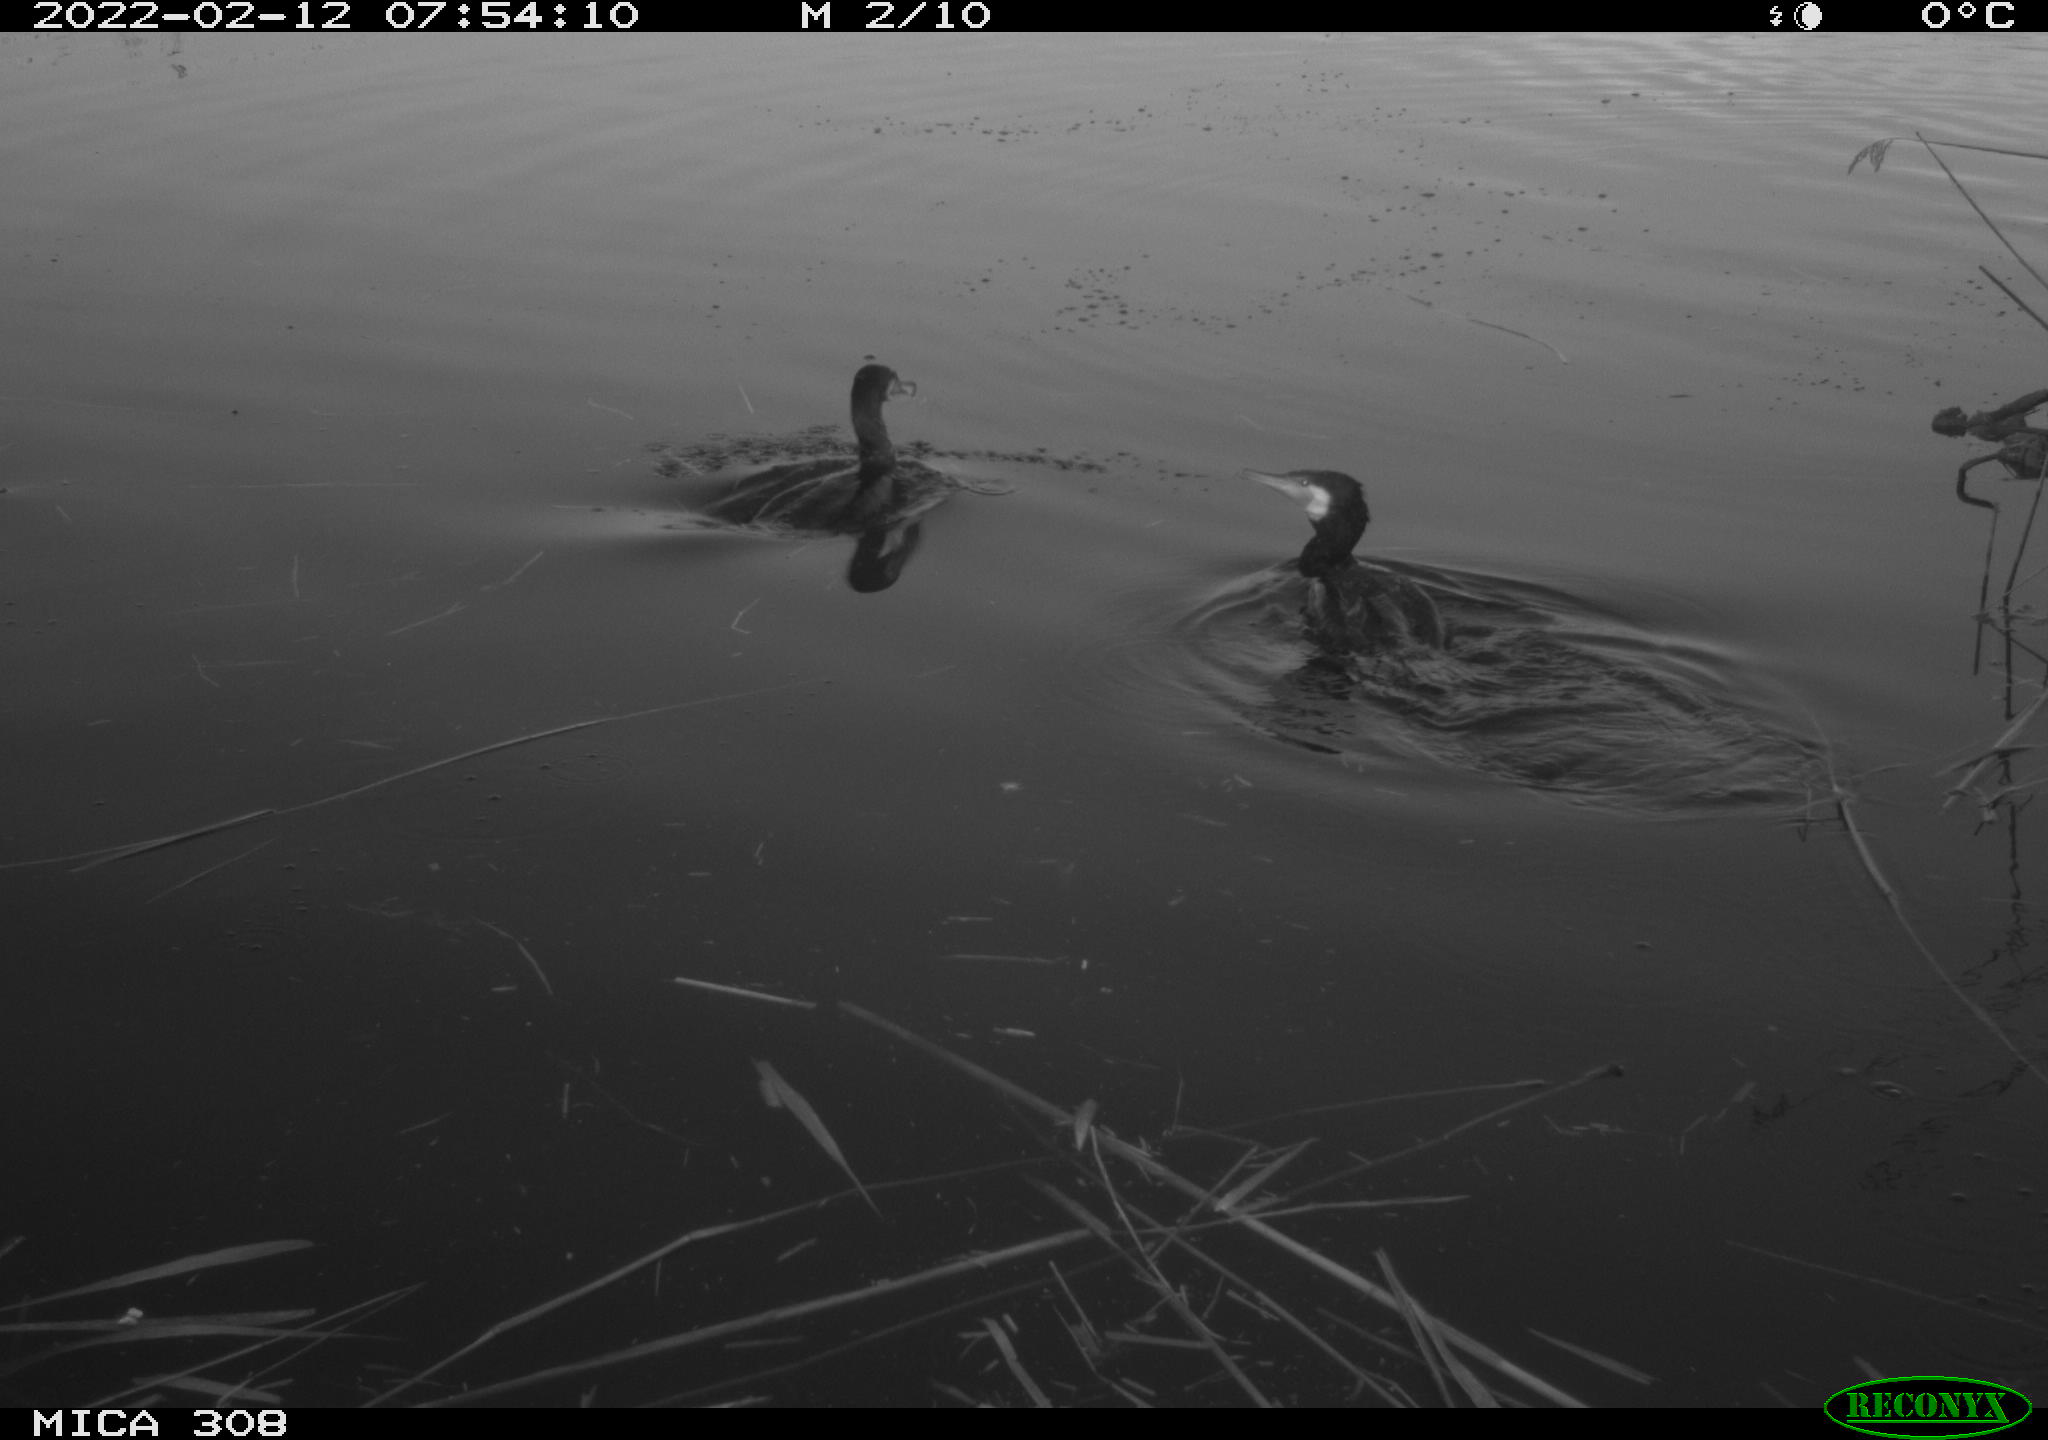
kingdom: Animalia
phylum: Chordata
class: Aves
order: Suliformes
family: Phalacrocoracidae
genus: Phalacrocorax
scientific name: Phalacrocorax carbo
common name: Great cormorant
